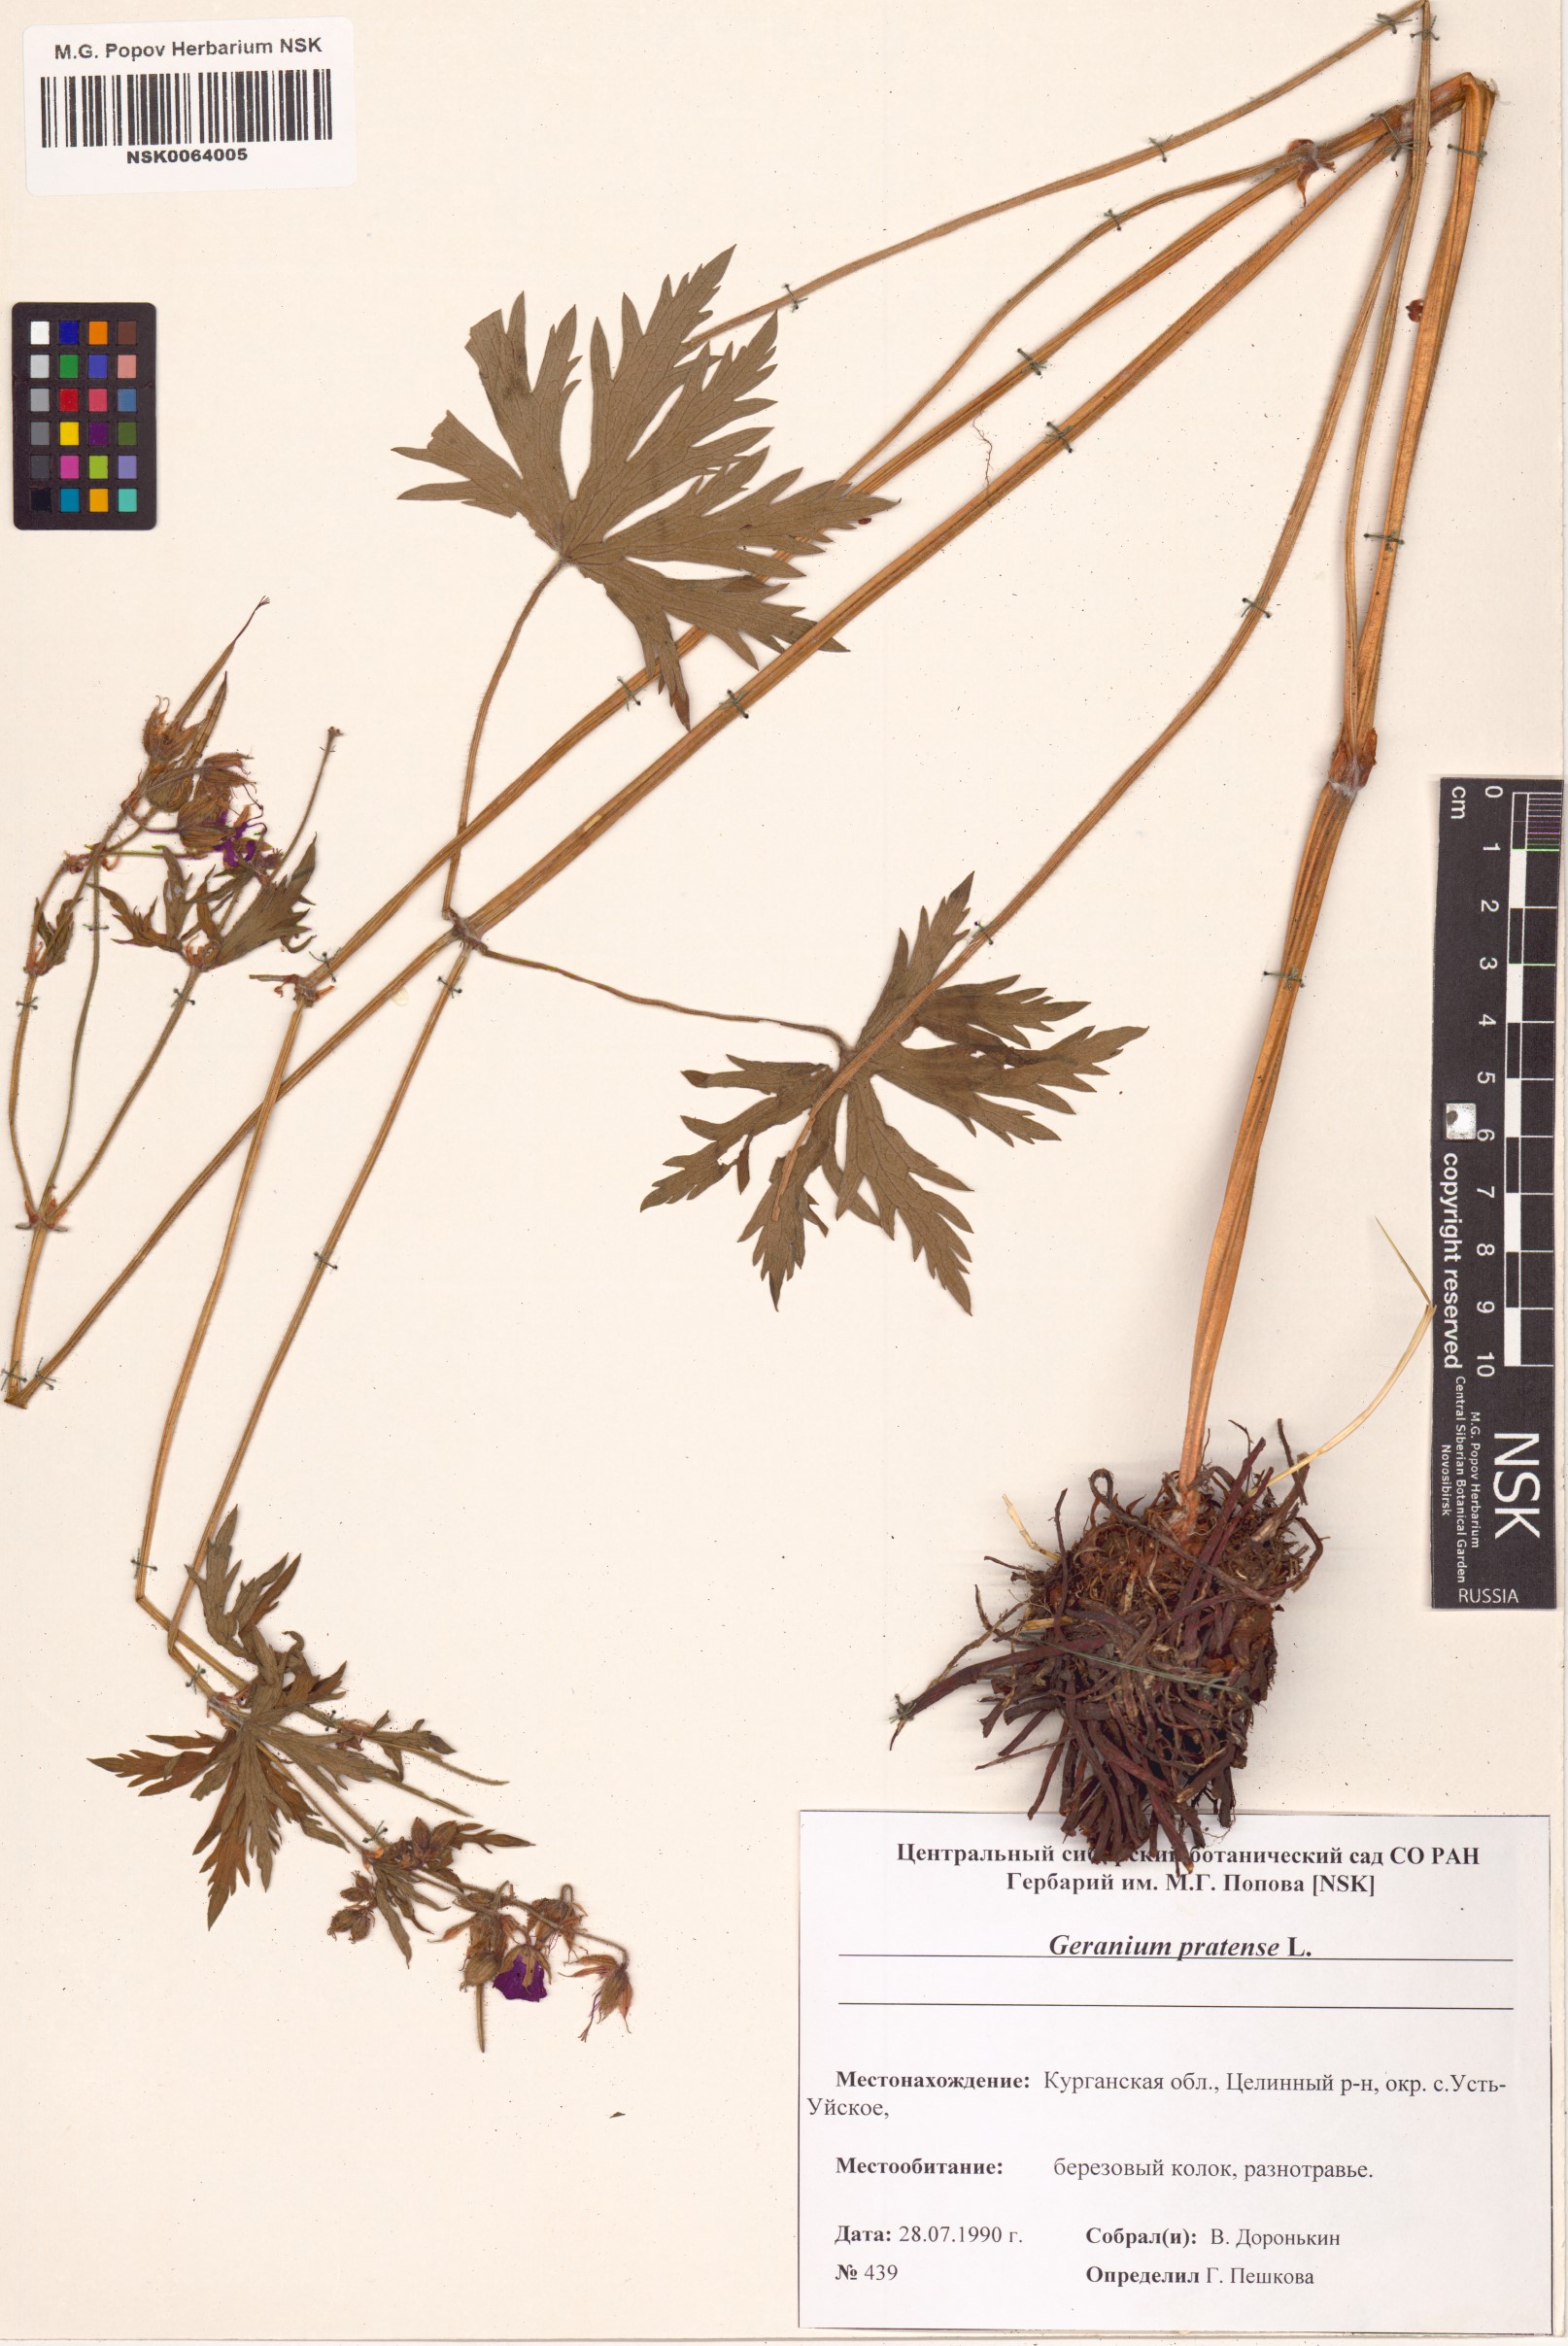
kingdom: Plantae
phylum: Tracheophyta
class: Magnoliopsida
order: Geraniales
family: Geraniaceae
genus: Geranium
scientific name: Geranium pratense
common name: Meadow crane's-bill
